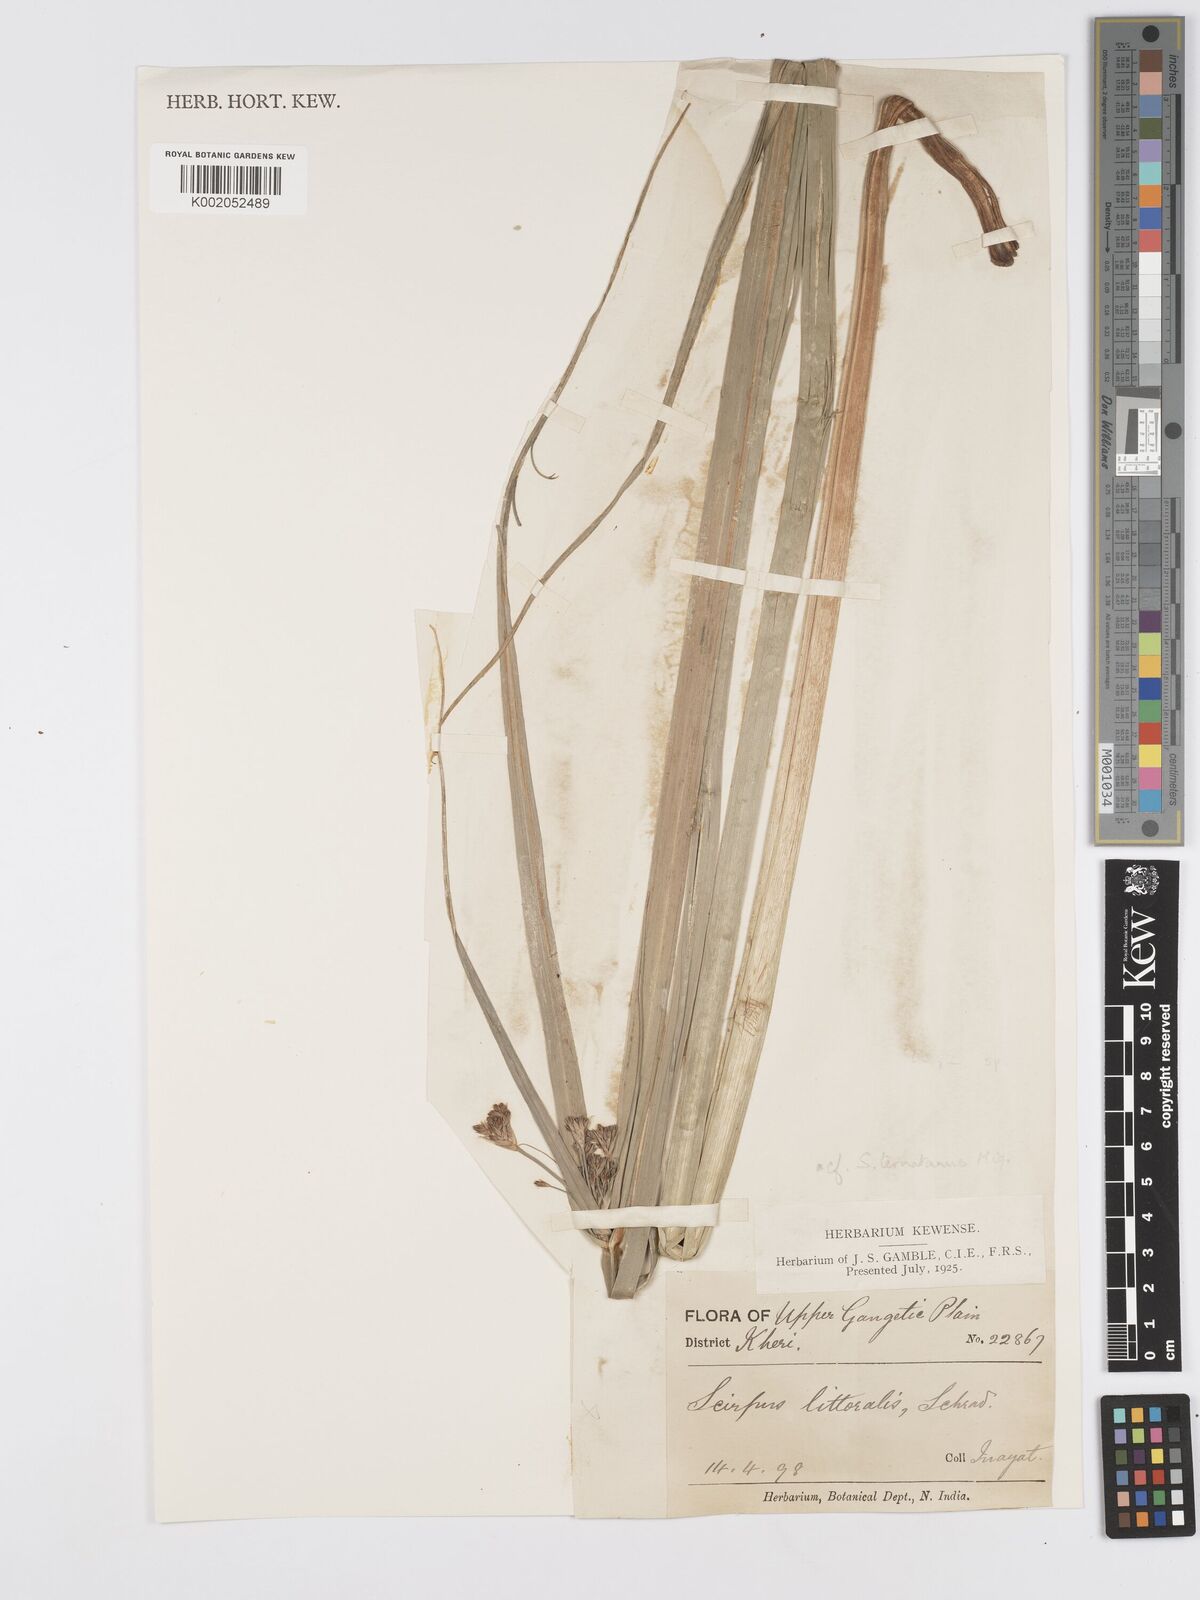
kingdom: Plantae
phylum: Tracheophyta
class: Liliopsida
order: Poales
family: Cyperaceae
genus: Scirpus
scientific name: Scirpus
